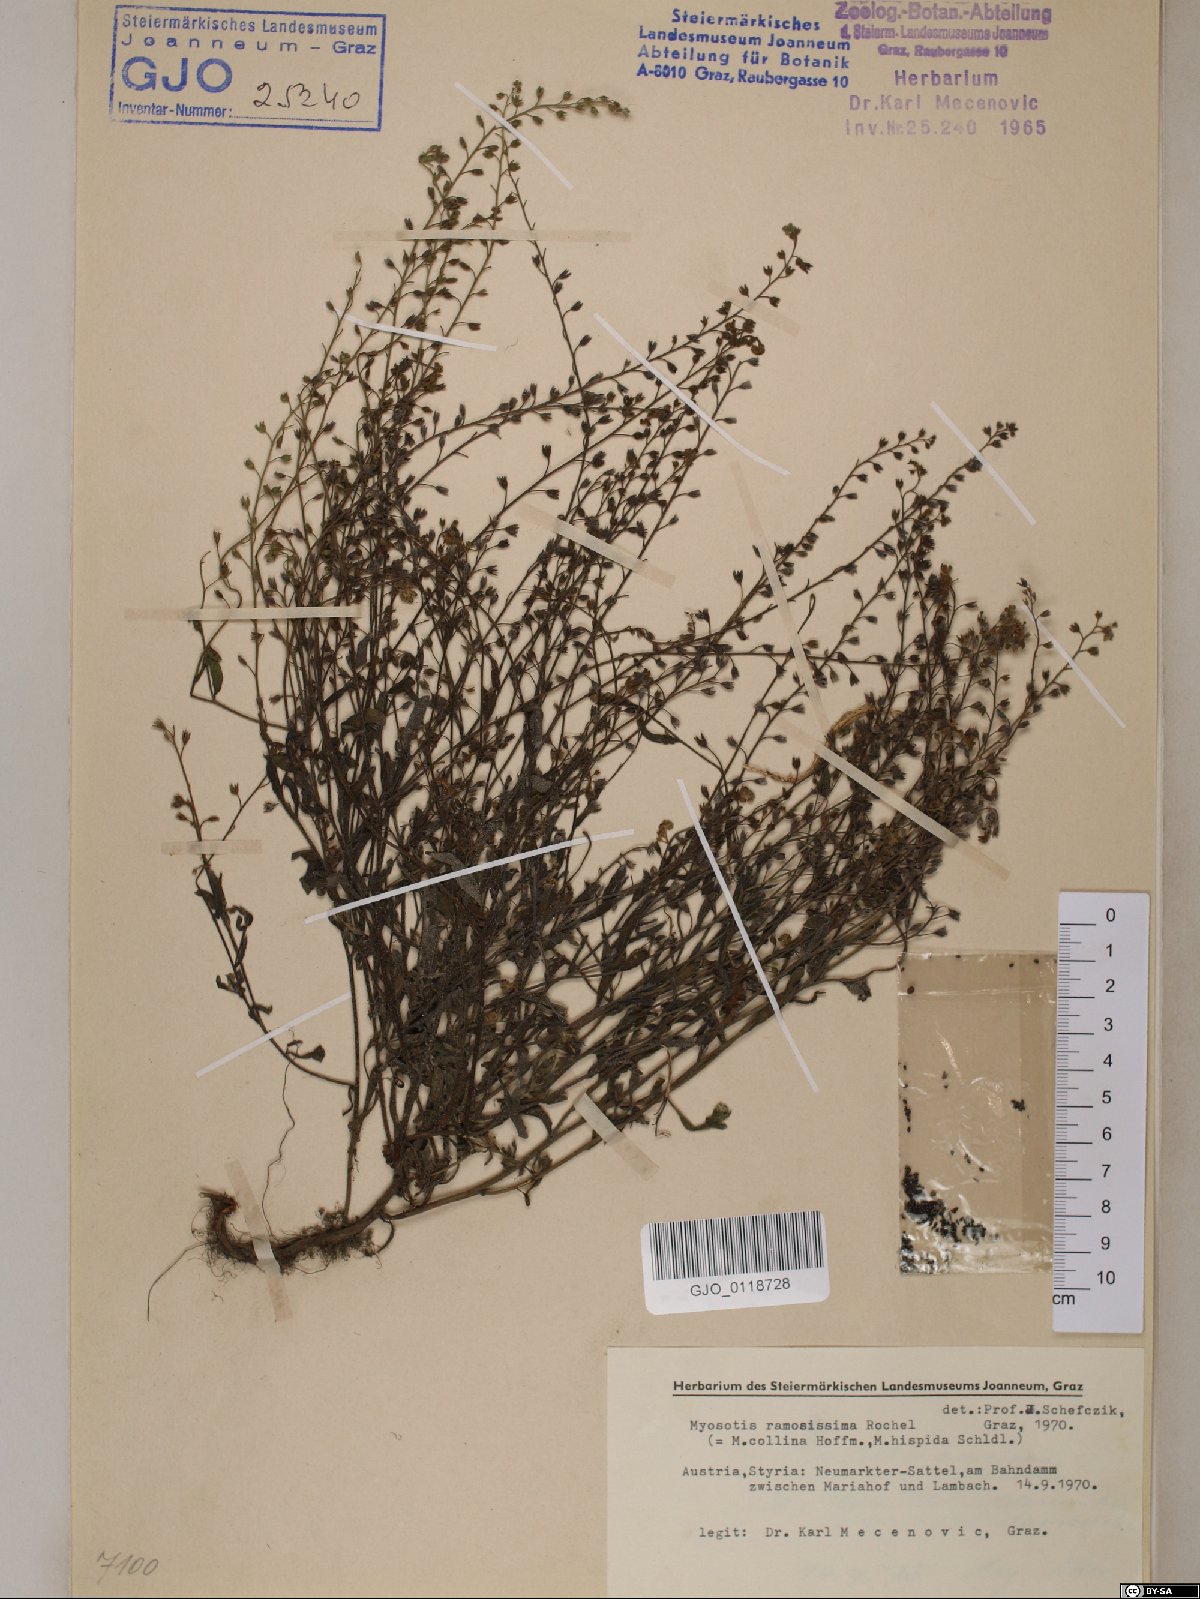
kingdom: Plantae
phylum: Tracheophyta
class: Magnoliopsida
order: Boraginales
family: Boraginaceae
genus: Myosotis
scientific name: Myosotis ramosissima
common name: Early forget-me-not
